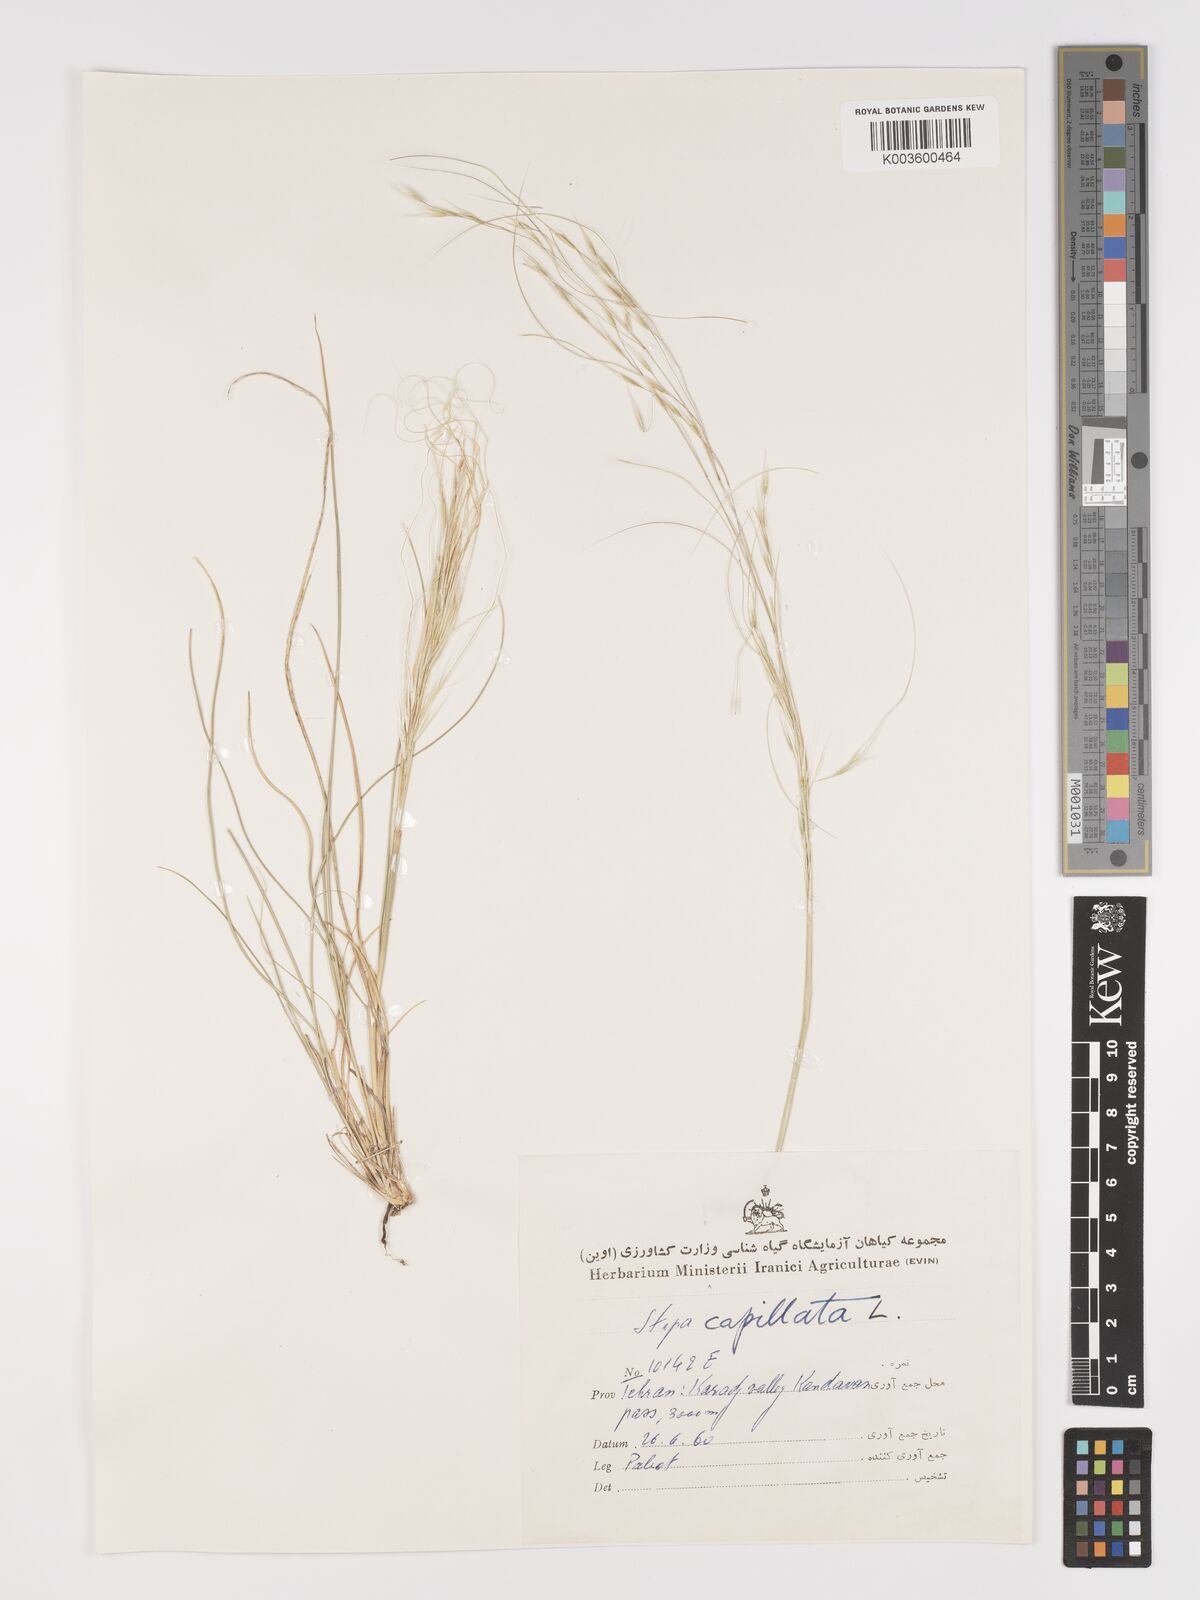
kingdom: Plantae
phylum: Tracheophyta
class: Liliopsida
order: Poales
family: Poaceae
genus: Stipa
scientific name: Stipa capillata
